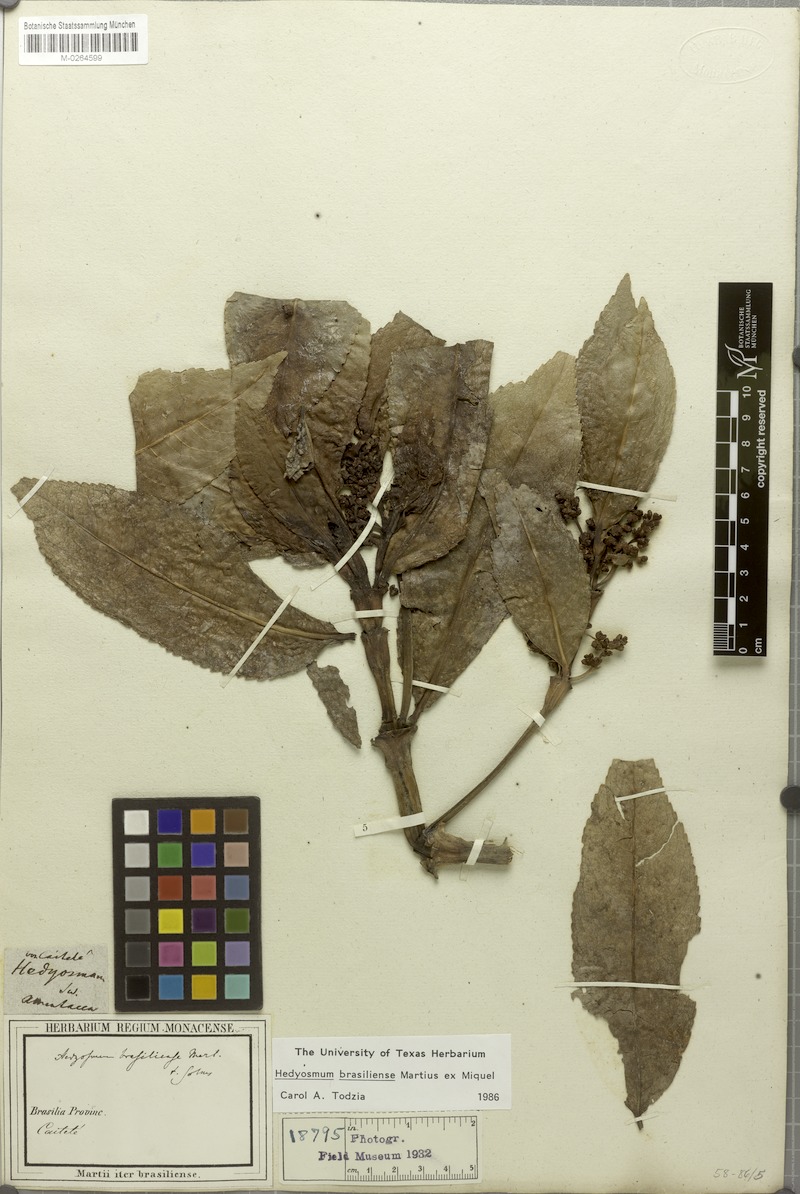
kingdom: Plantae
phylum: Tracheophyta
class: Magnoliopsida
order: Chloranthales
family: Chloranthaceae
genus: Hedyosmum
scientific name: Hedyosmum brasiliense
